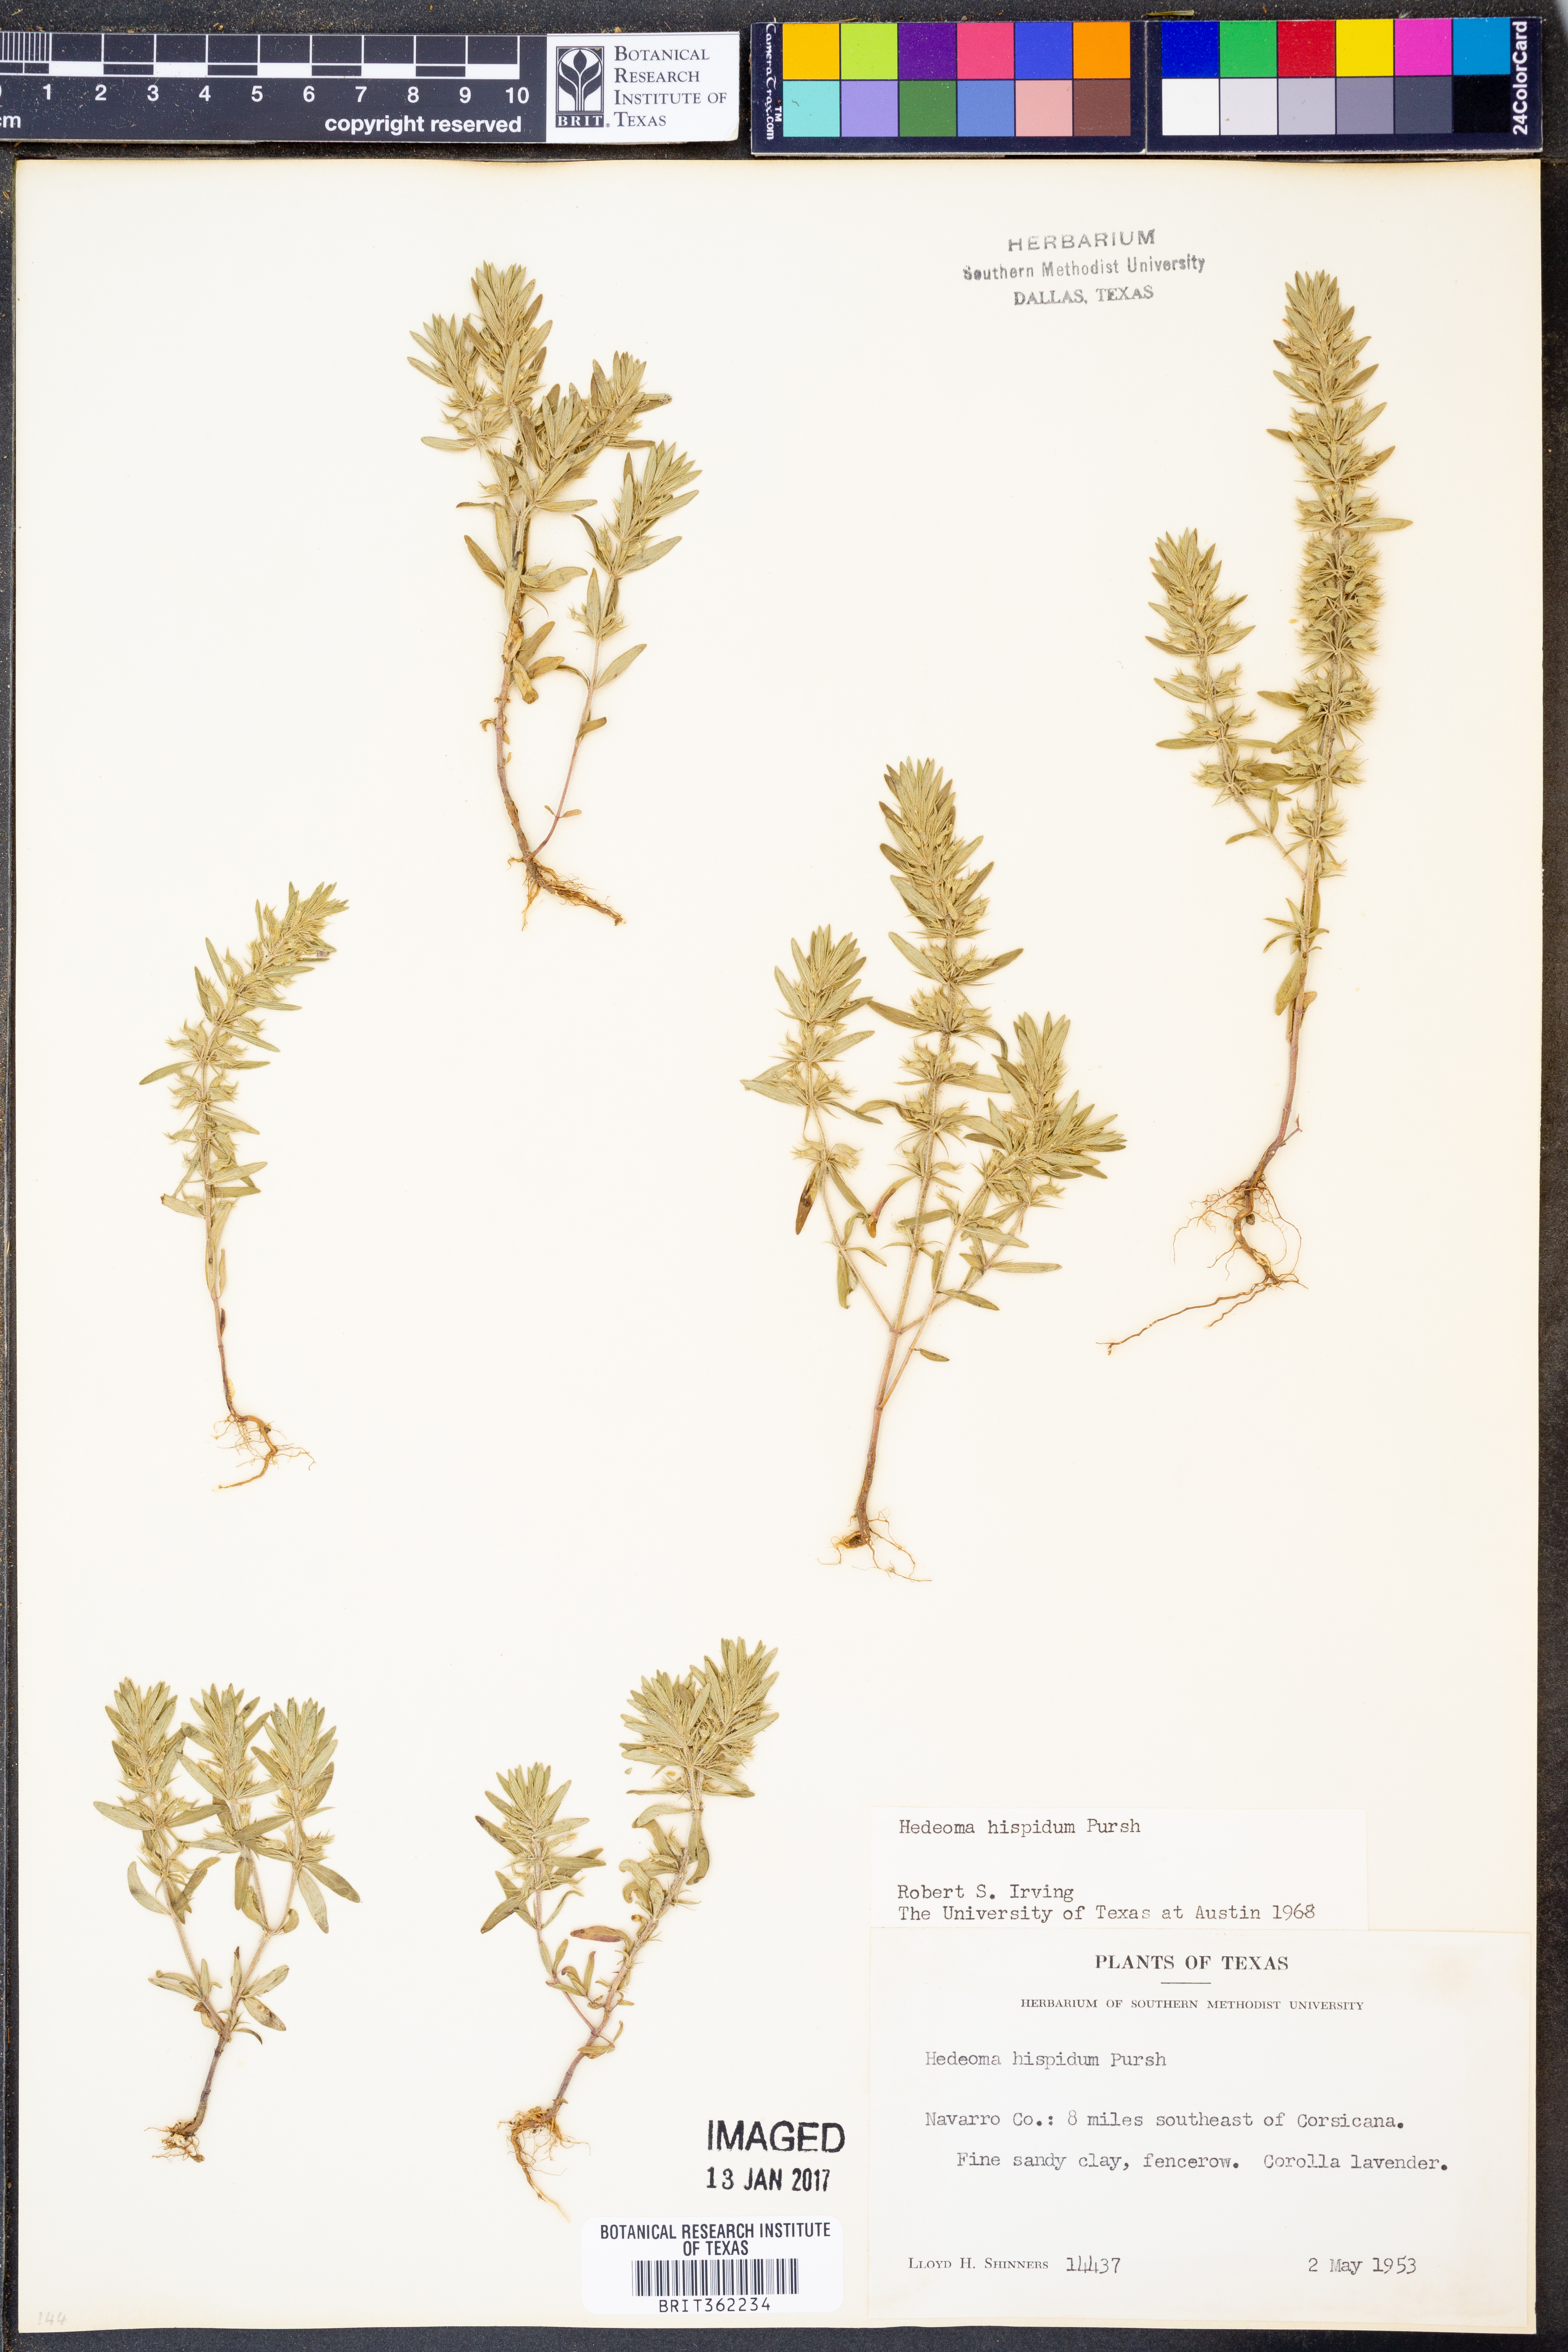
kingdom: Plantae
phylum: Tracheophyta
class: Magnoliopsida
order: Lamiales
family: Lamiaceae
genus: Hedeoma
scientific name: Hedeoma hispida
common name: Mock pennyroyal
